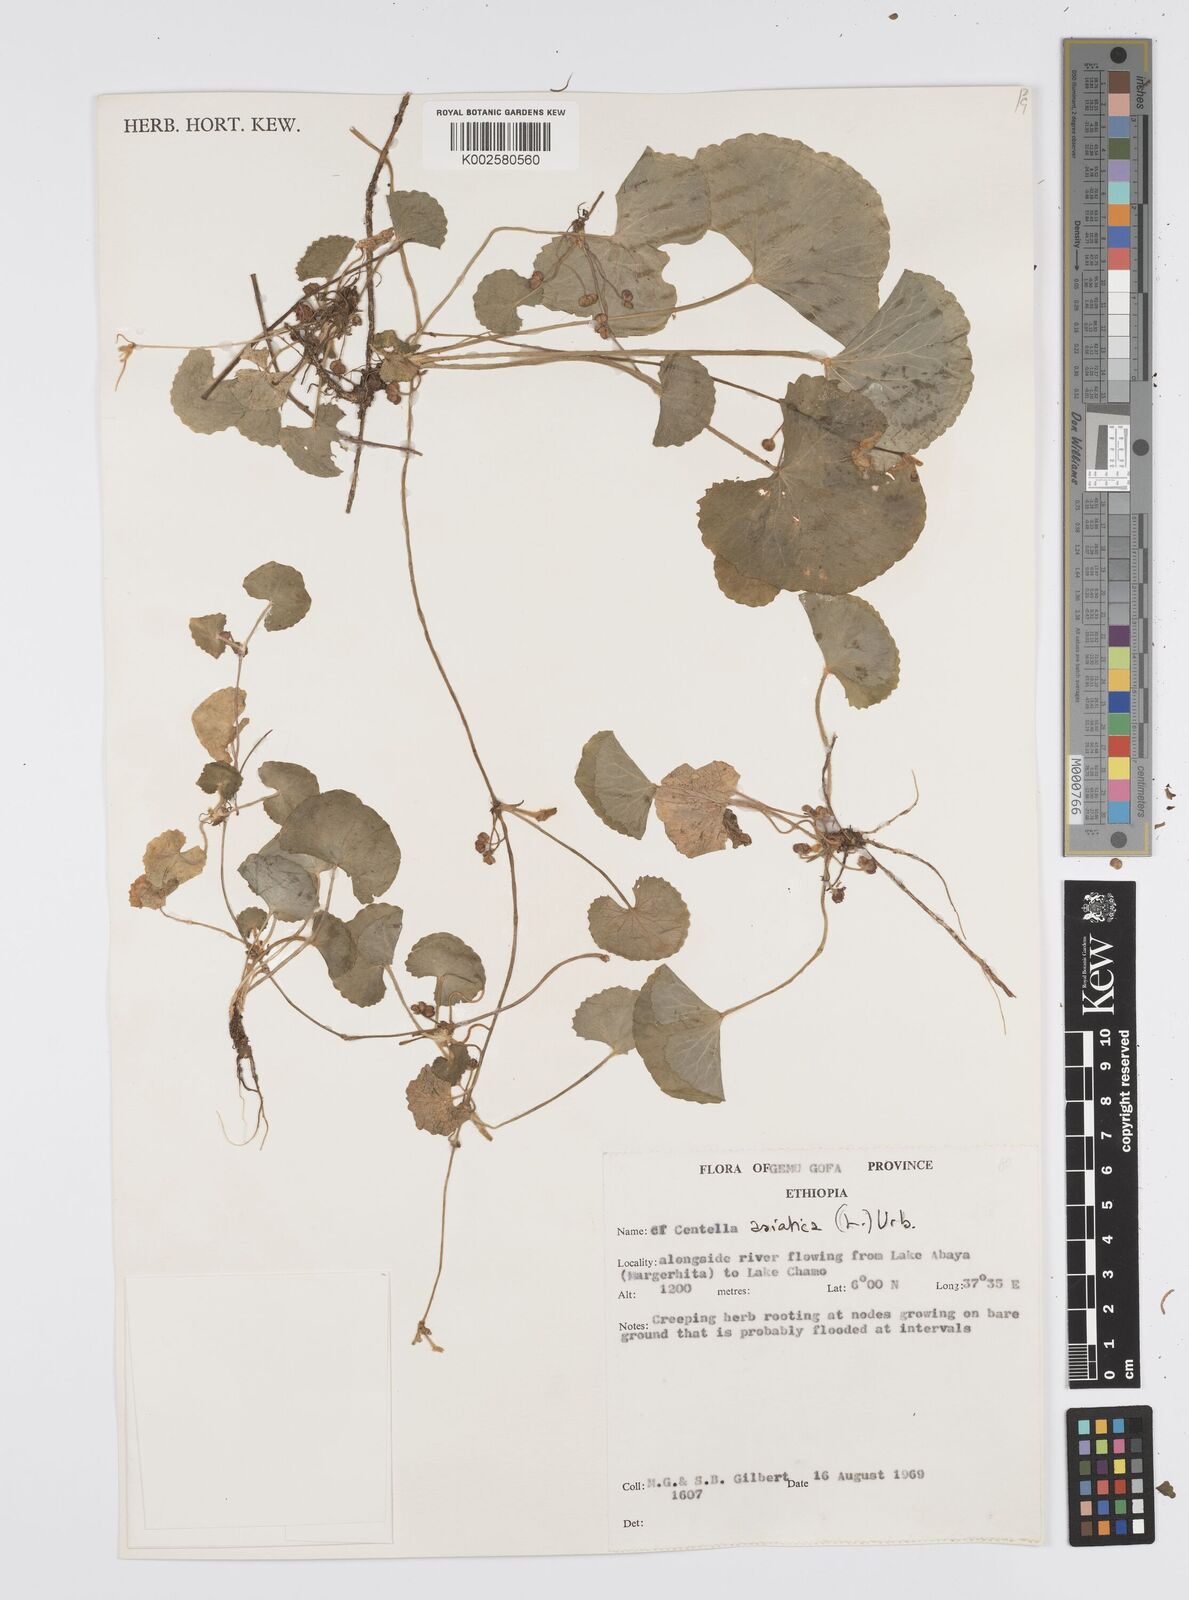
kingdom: Plantae
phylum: Tracheophyta
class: Magnoliopsida
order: Apiales
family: Apiaceae
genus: Centella
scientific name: Centella asiatica
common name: Spadeleaf
